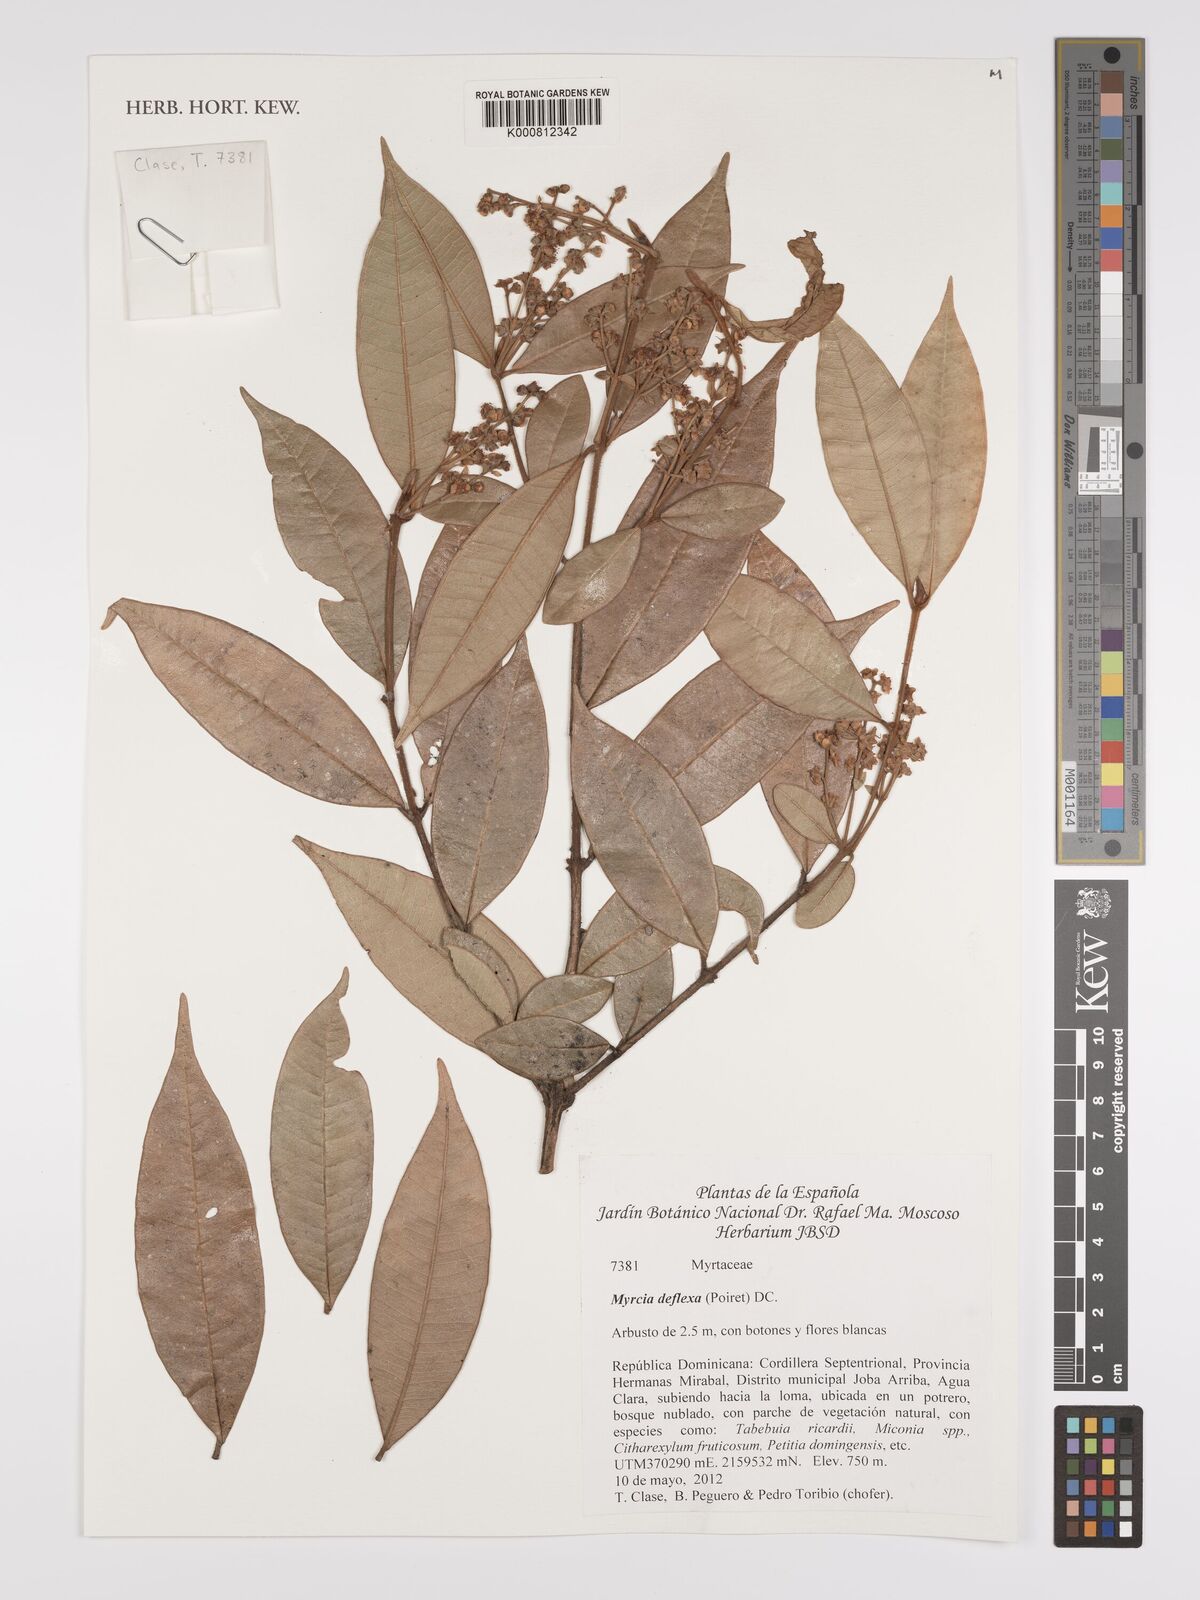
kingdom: Plantae
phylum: Tracheophyta
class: Magnoliopsida
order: Myrtales
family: Myrtaceae
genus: Myrcia
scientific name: Myrcia deflexa
